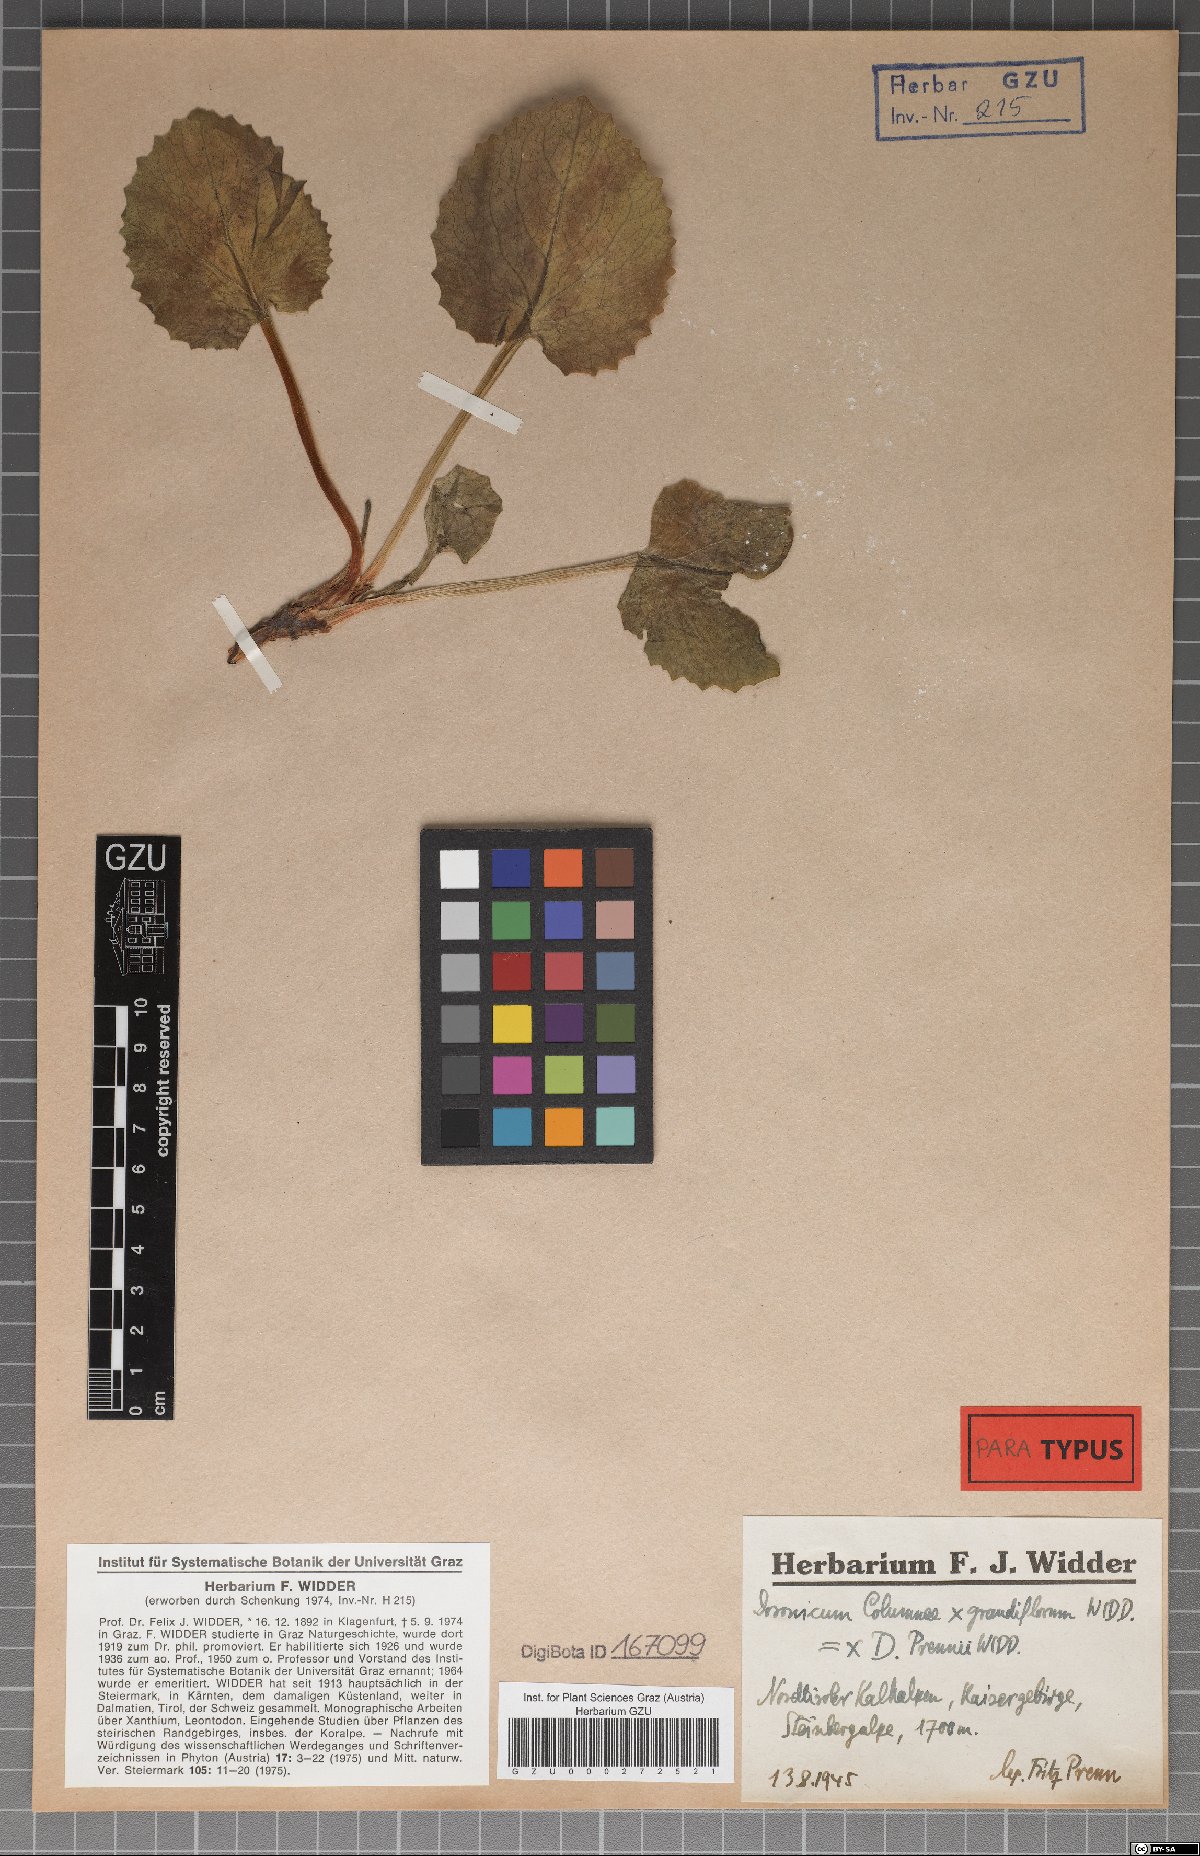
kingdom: Plantae
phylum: Tracheophyta
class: Magnoliopsida
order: Asterales
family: Asteraceae
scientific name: Asteraceae
